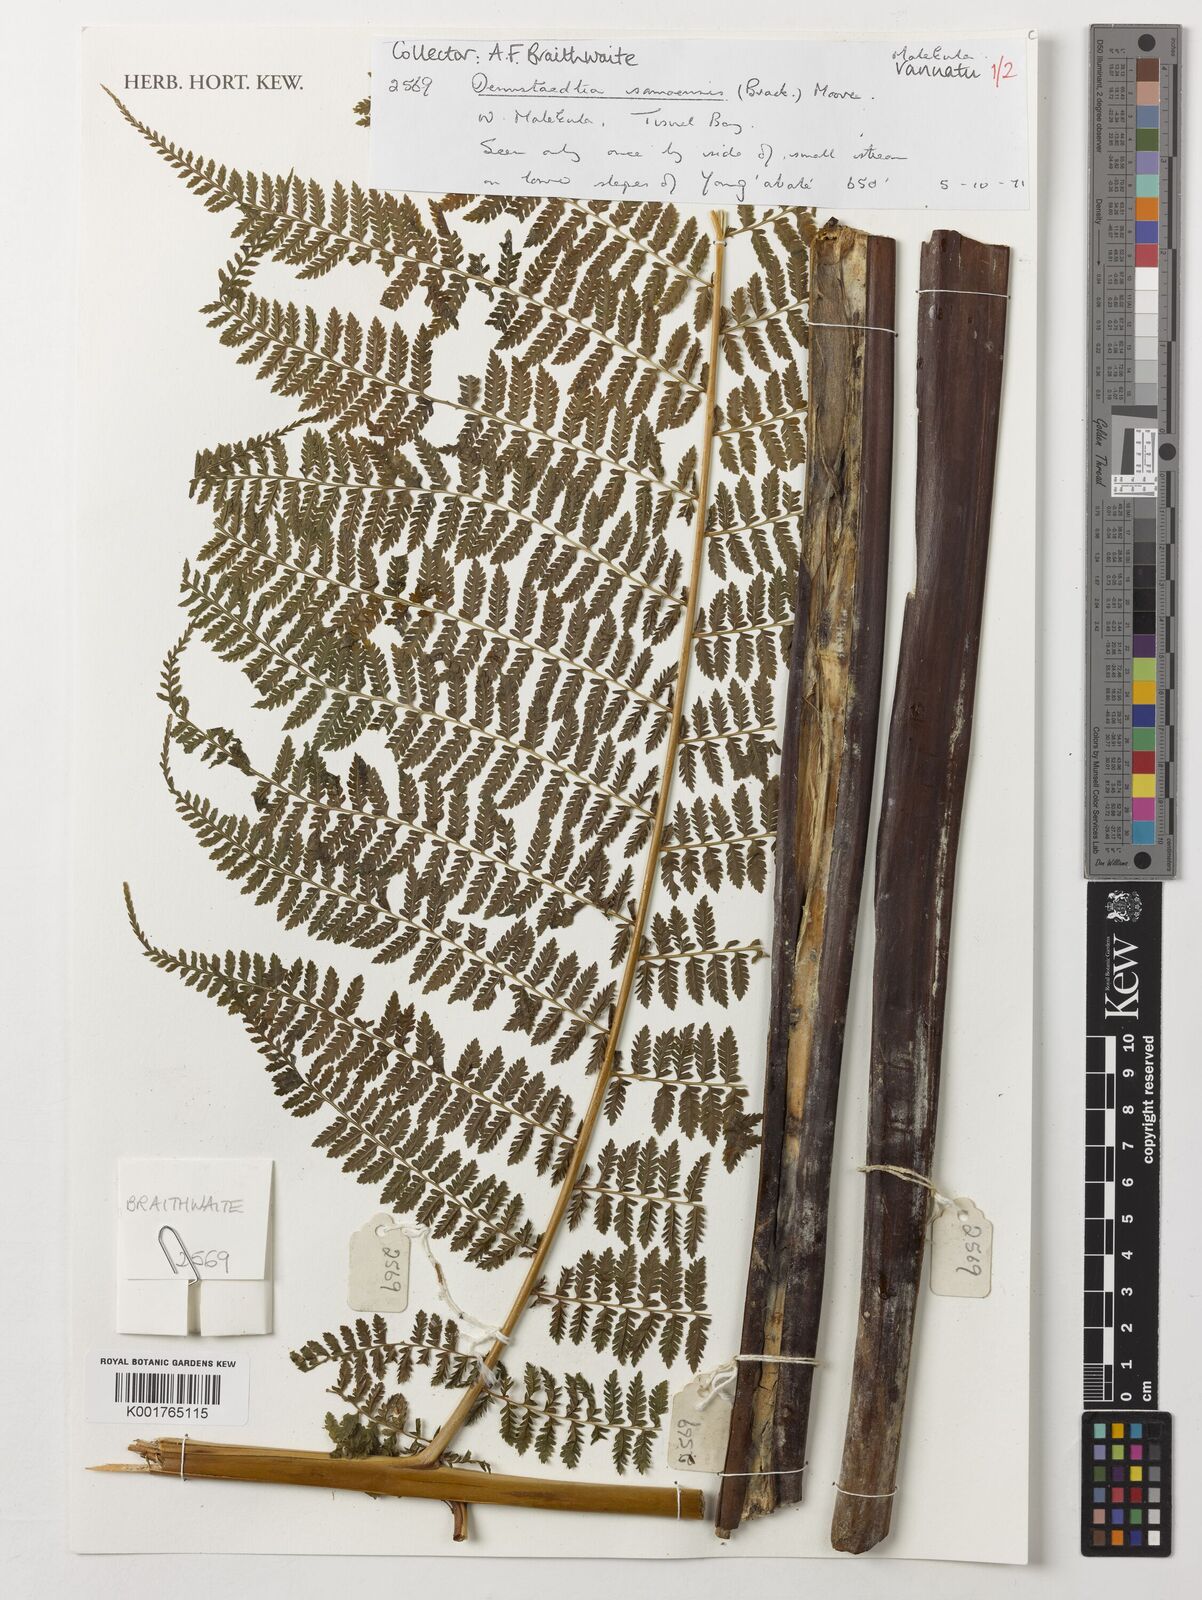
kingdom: Plantae
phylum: Tracheophyta
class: Polypodiopsida
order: Polypodiales
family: Dennstaedtiaceae
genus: Dennstaedtia
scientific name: Dennstaedtia samoensis
